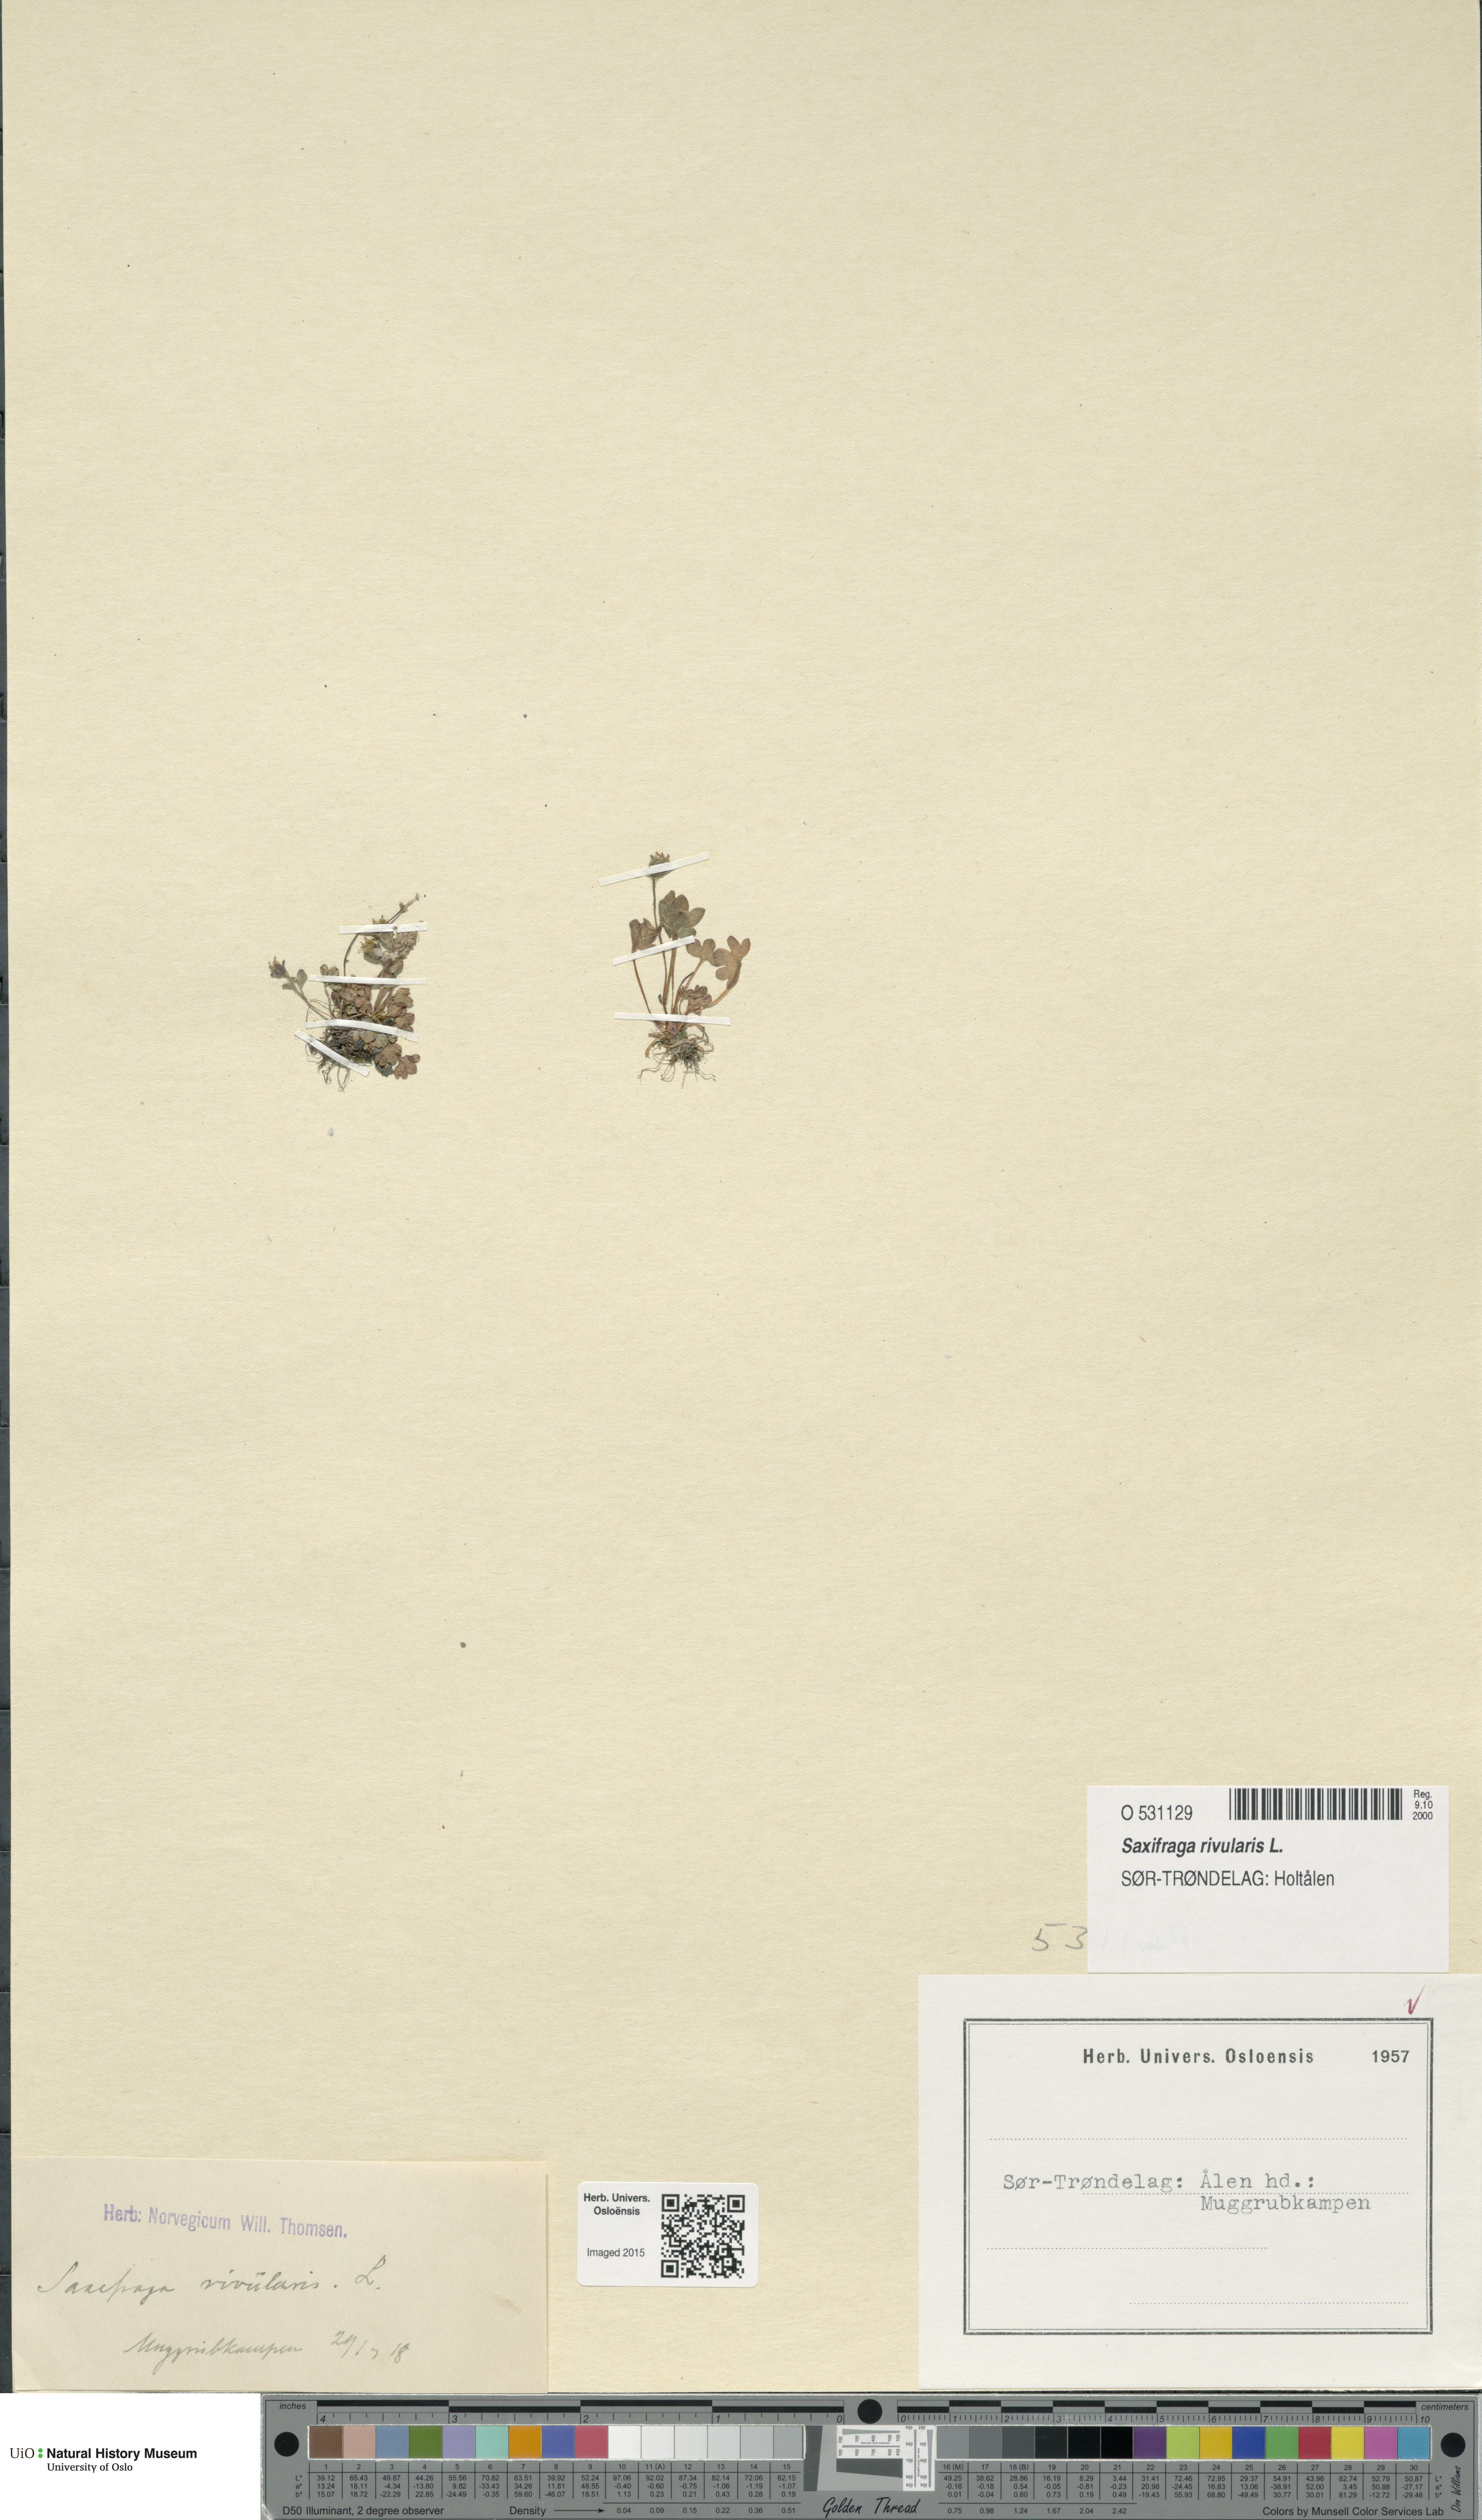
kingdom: Plantae
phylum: Tracheophyta
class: Magnoliopsida
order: Saxifragales
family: Saxifragaceae
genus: Saxifraga
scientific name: Saxifraga rivularis
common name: Highland saxifrage
